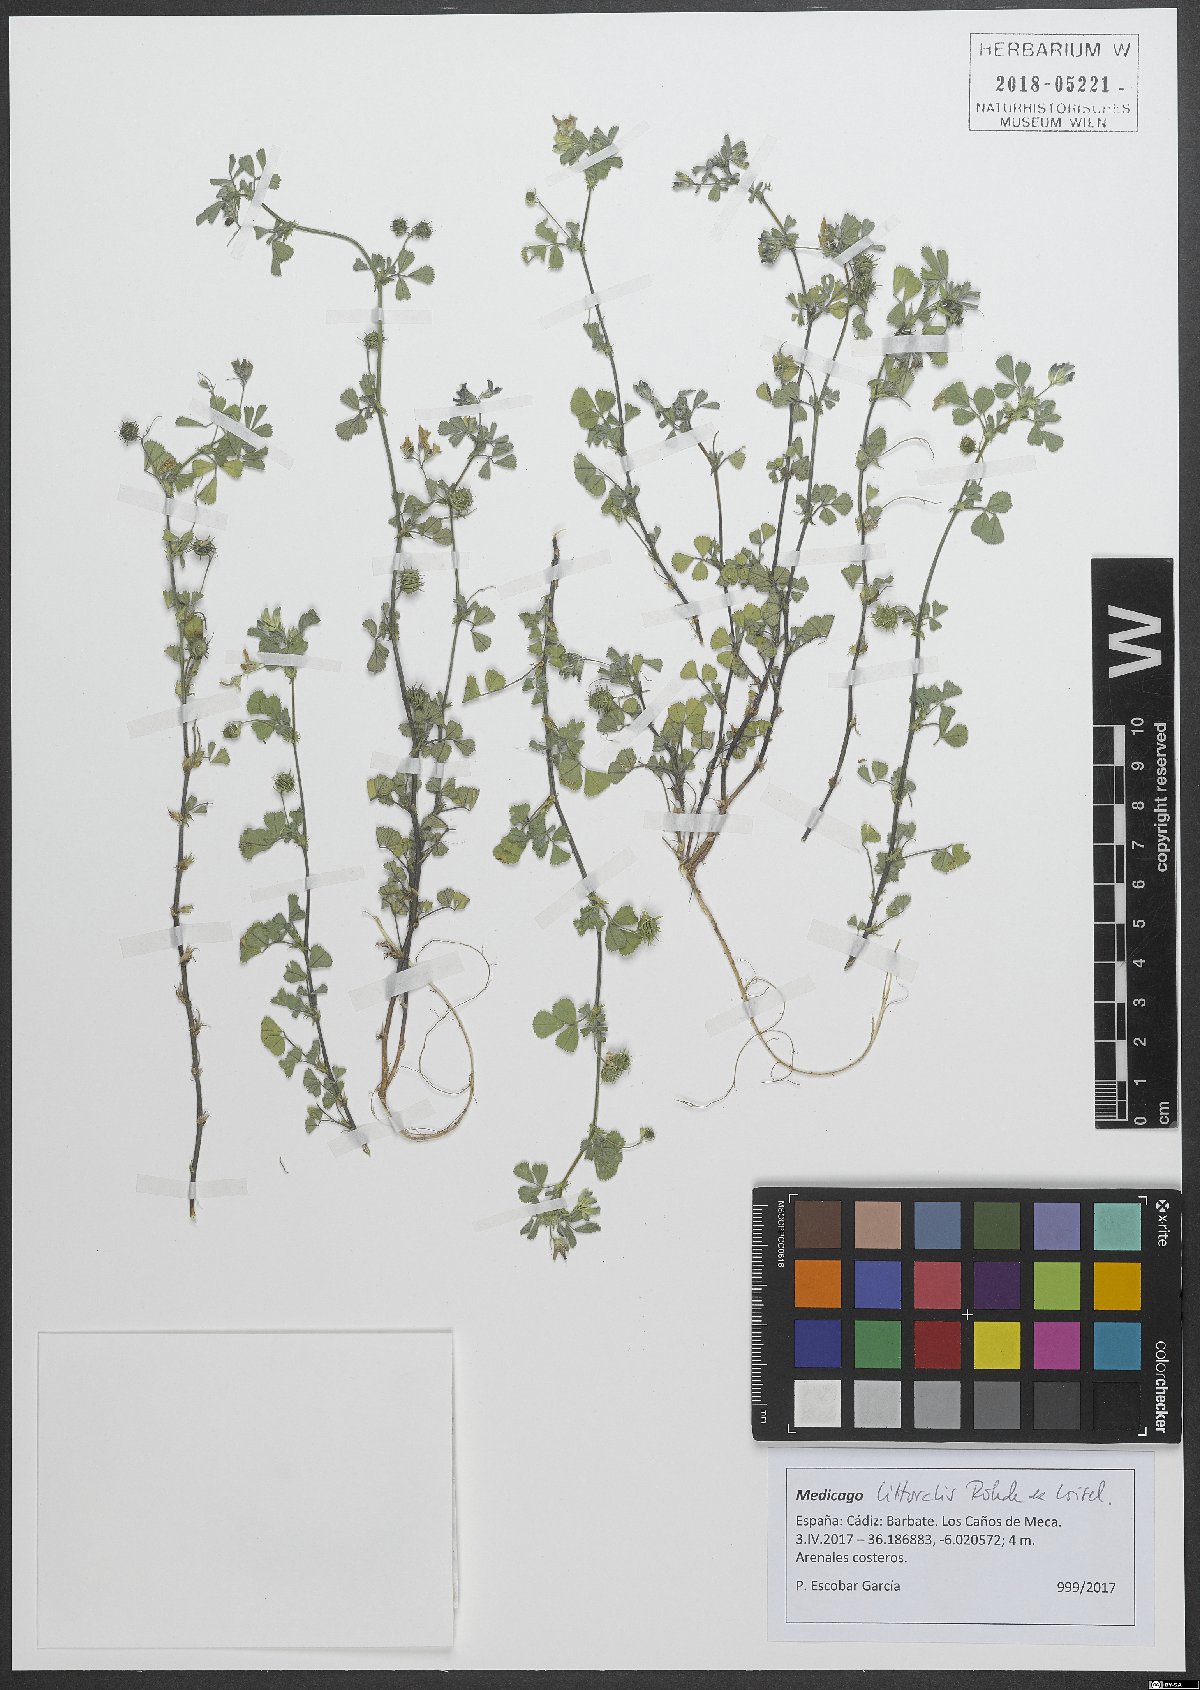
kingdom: Plantae
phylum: Tracheophyta
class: Magnoliopsida
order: Fabales
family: Fabaceae
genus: Medicago
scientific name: Medicago littoralis
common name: Shore medick
